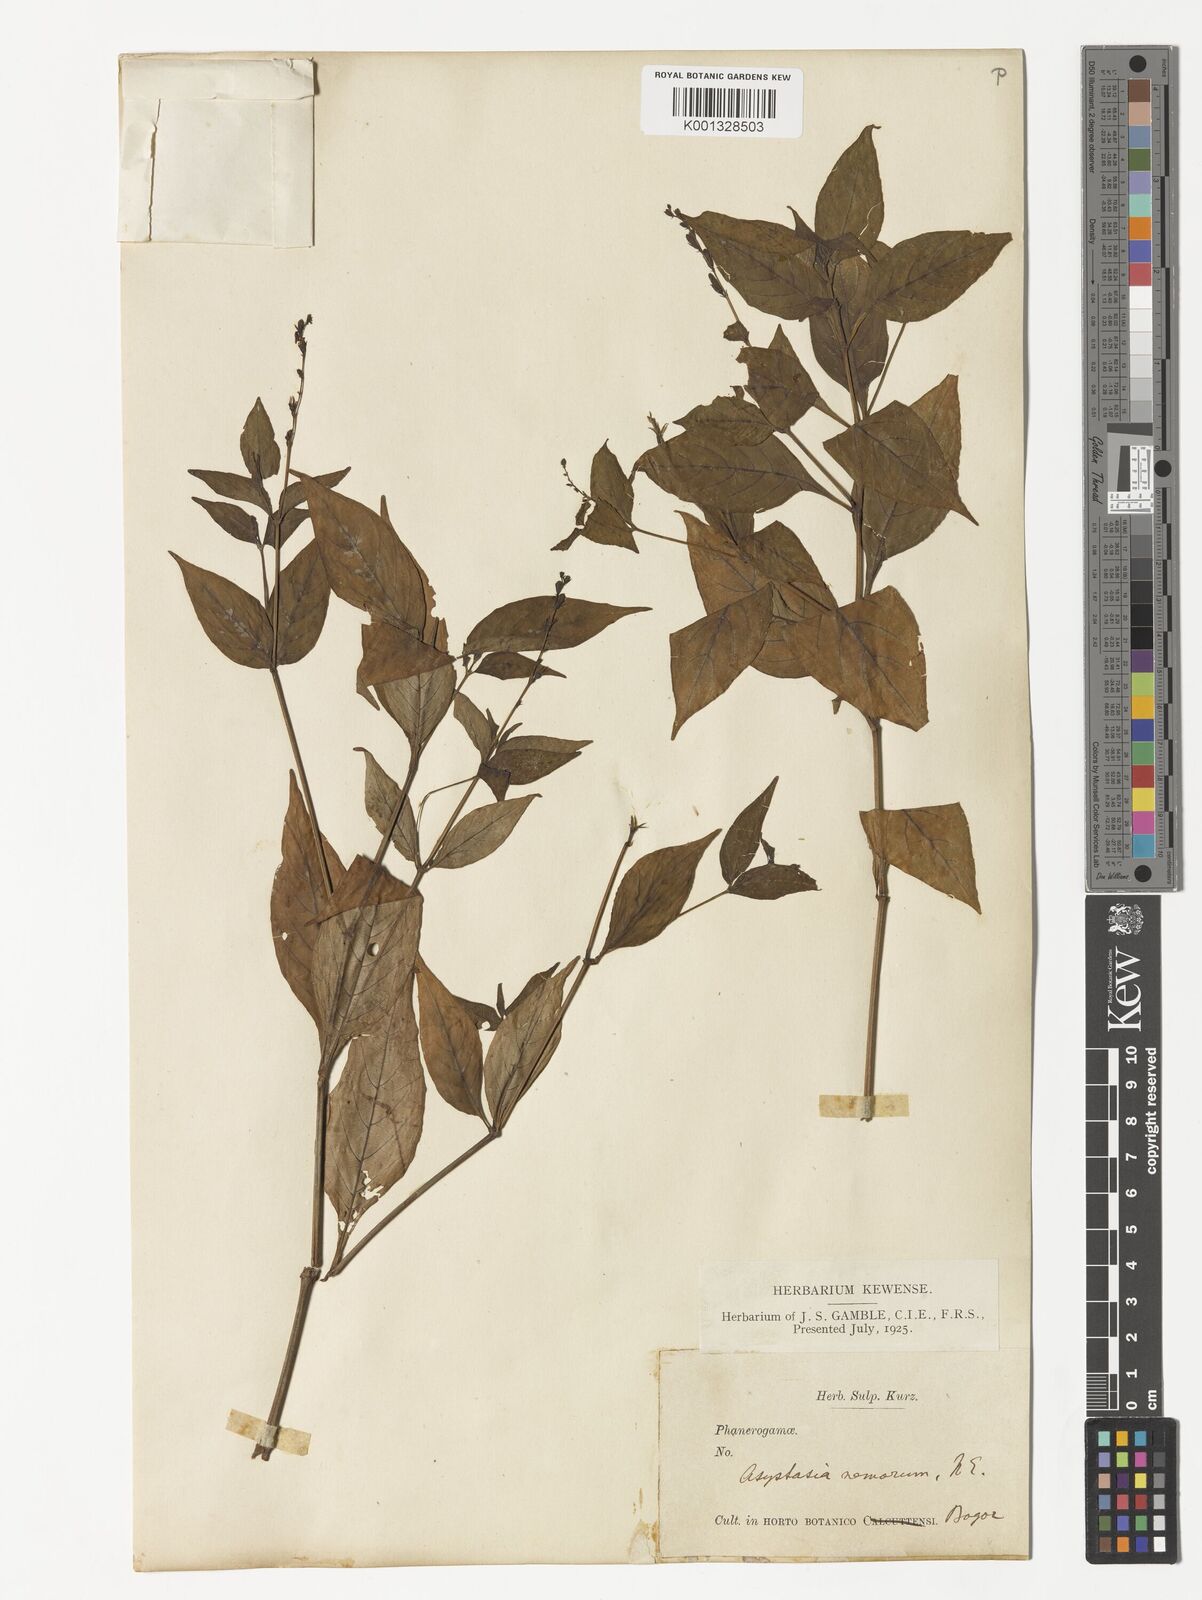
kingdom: Plantae
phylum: Tracheophyta
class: Magnoliopsida
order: Lamiales
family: Acanthaceae
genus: Asystasia
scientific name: Asystasia nemorum
